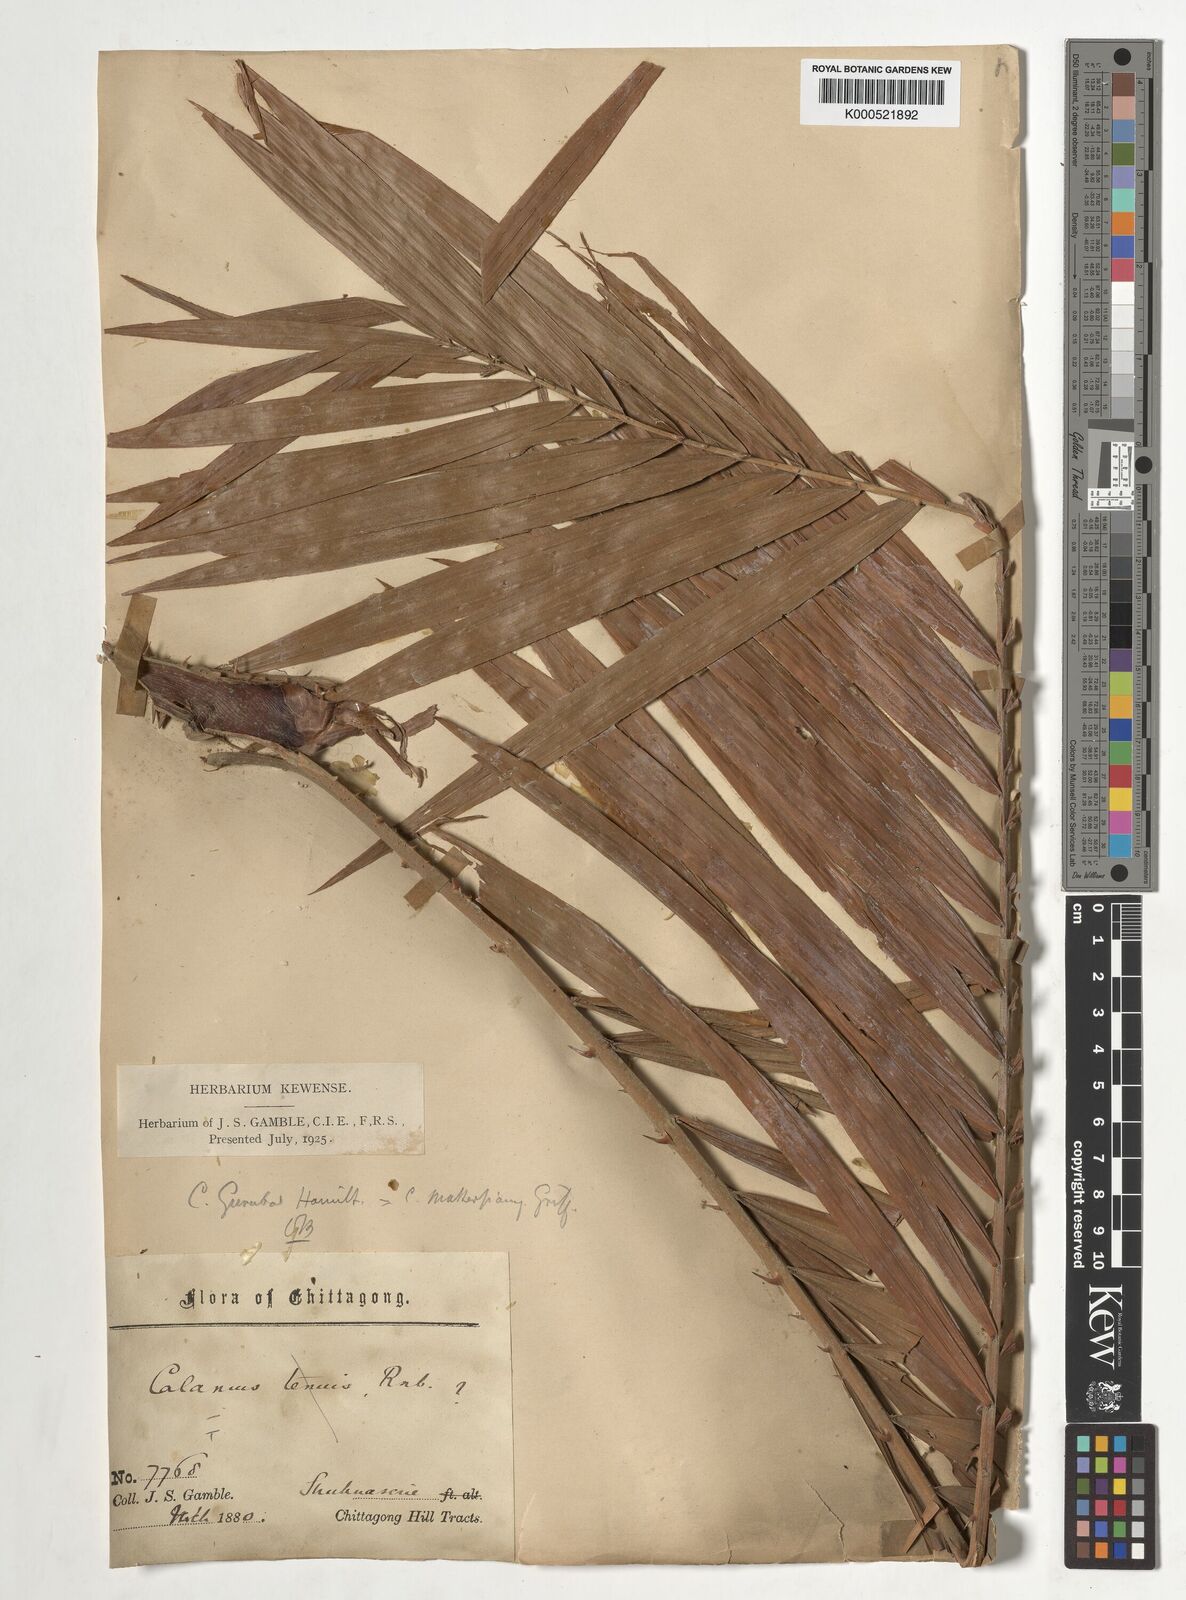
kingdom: Plantae
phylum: Tracheophyta
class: Liliopsida
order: Arecales
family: Arecaceae
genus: Calamus
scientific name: Calamus
